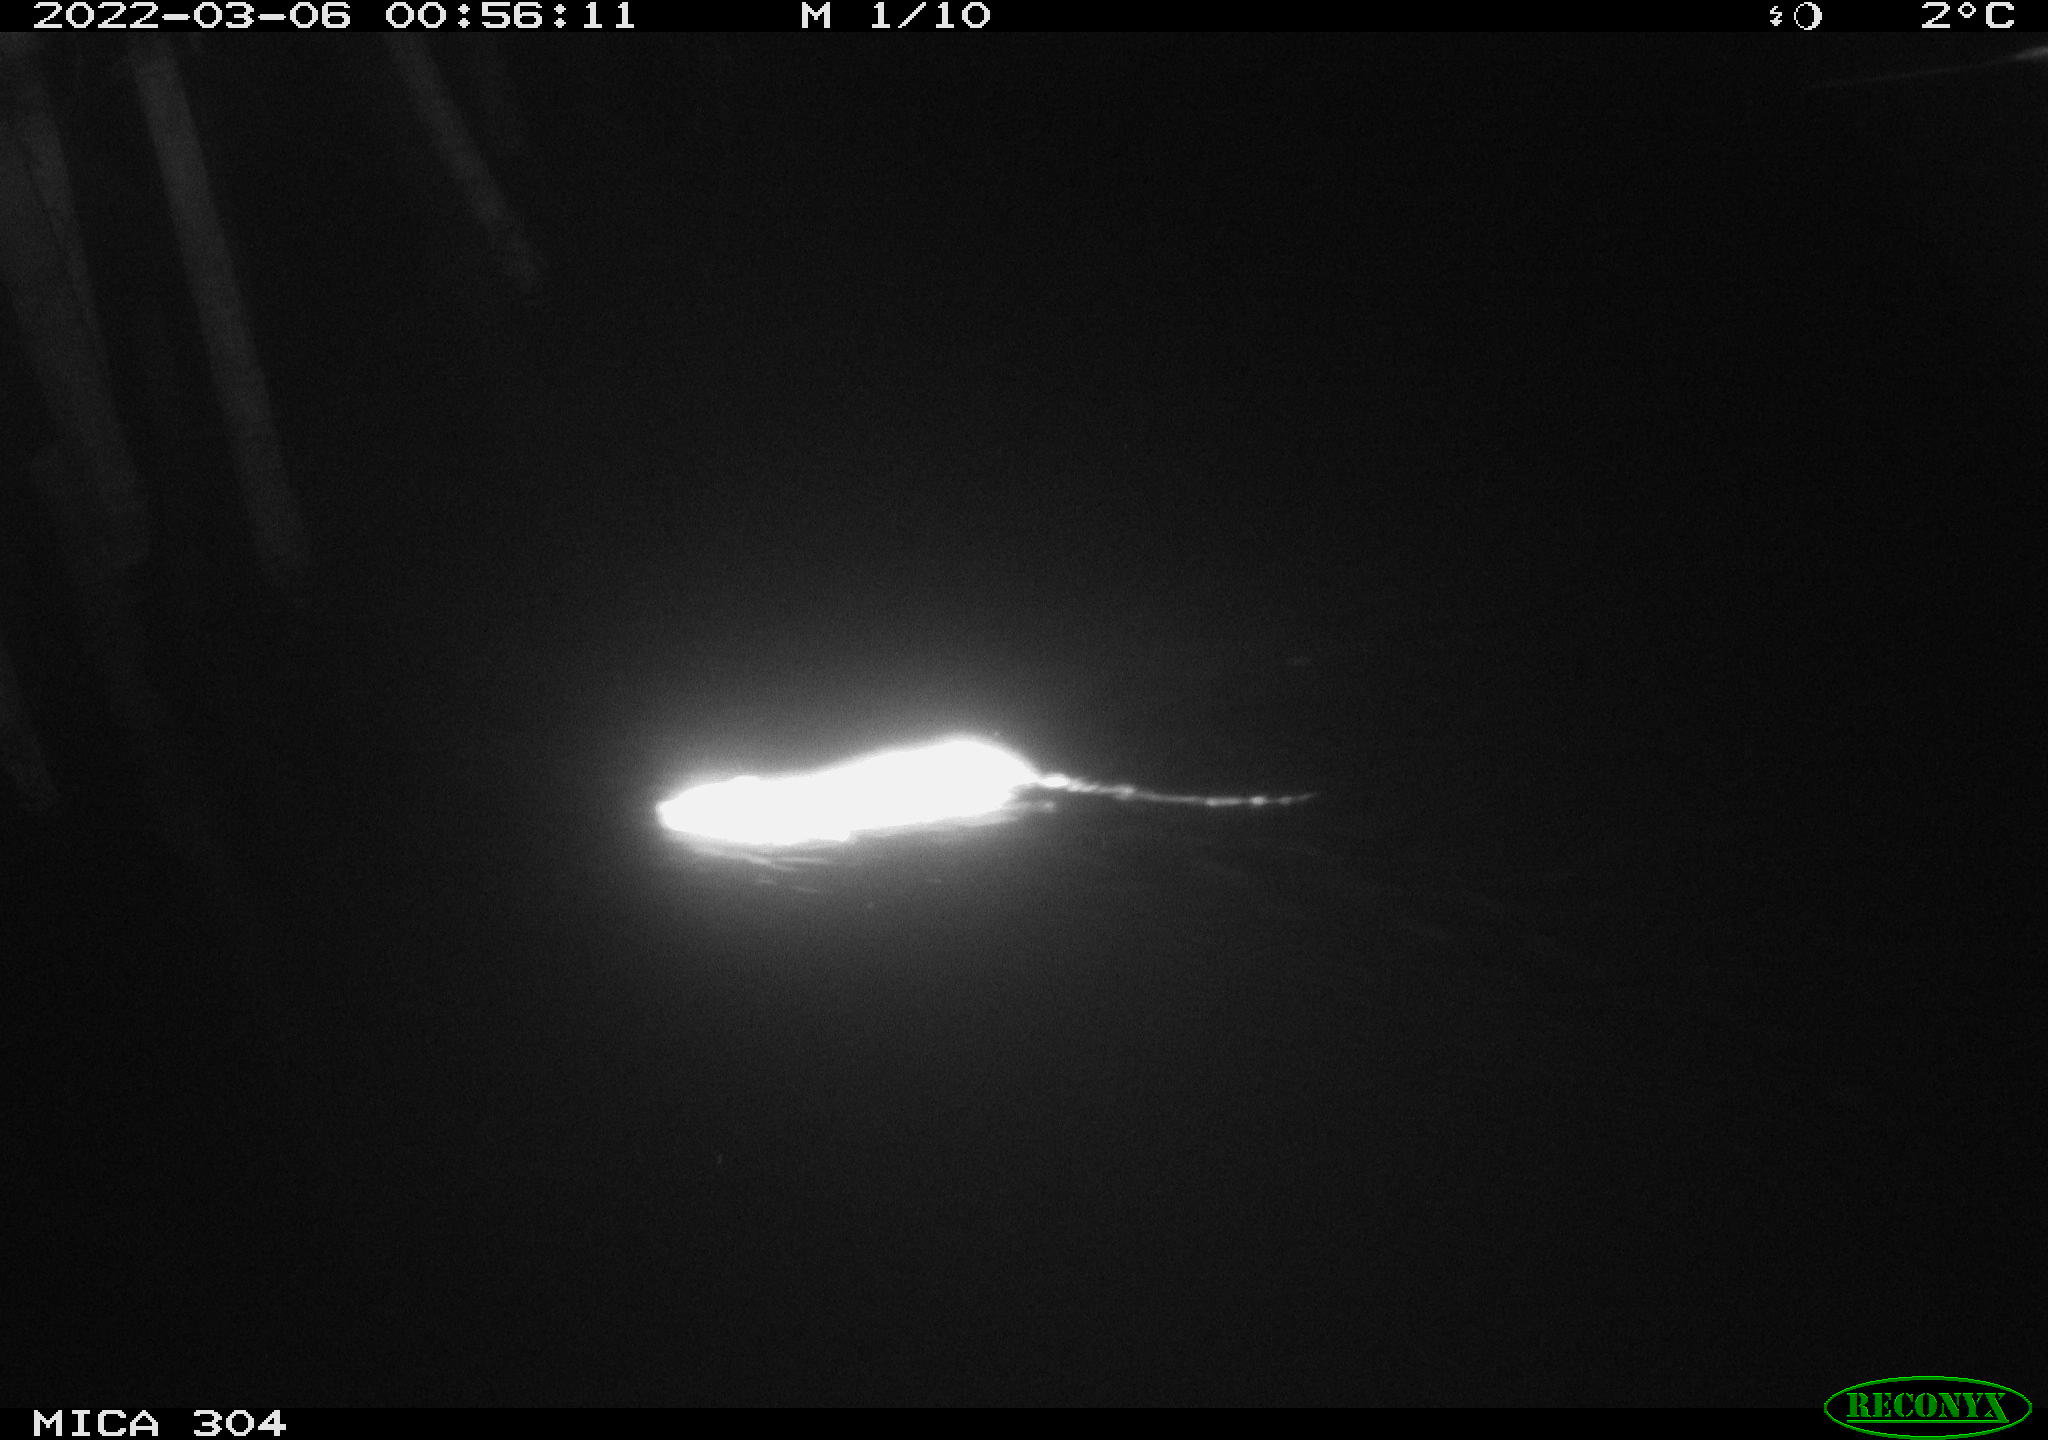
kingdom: Animalia
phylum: Chordata
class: Mammalia
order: Rodentia
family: Muridae
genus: Rattus
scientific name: Rattus norvegicus
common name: Brown rat
